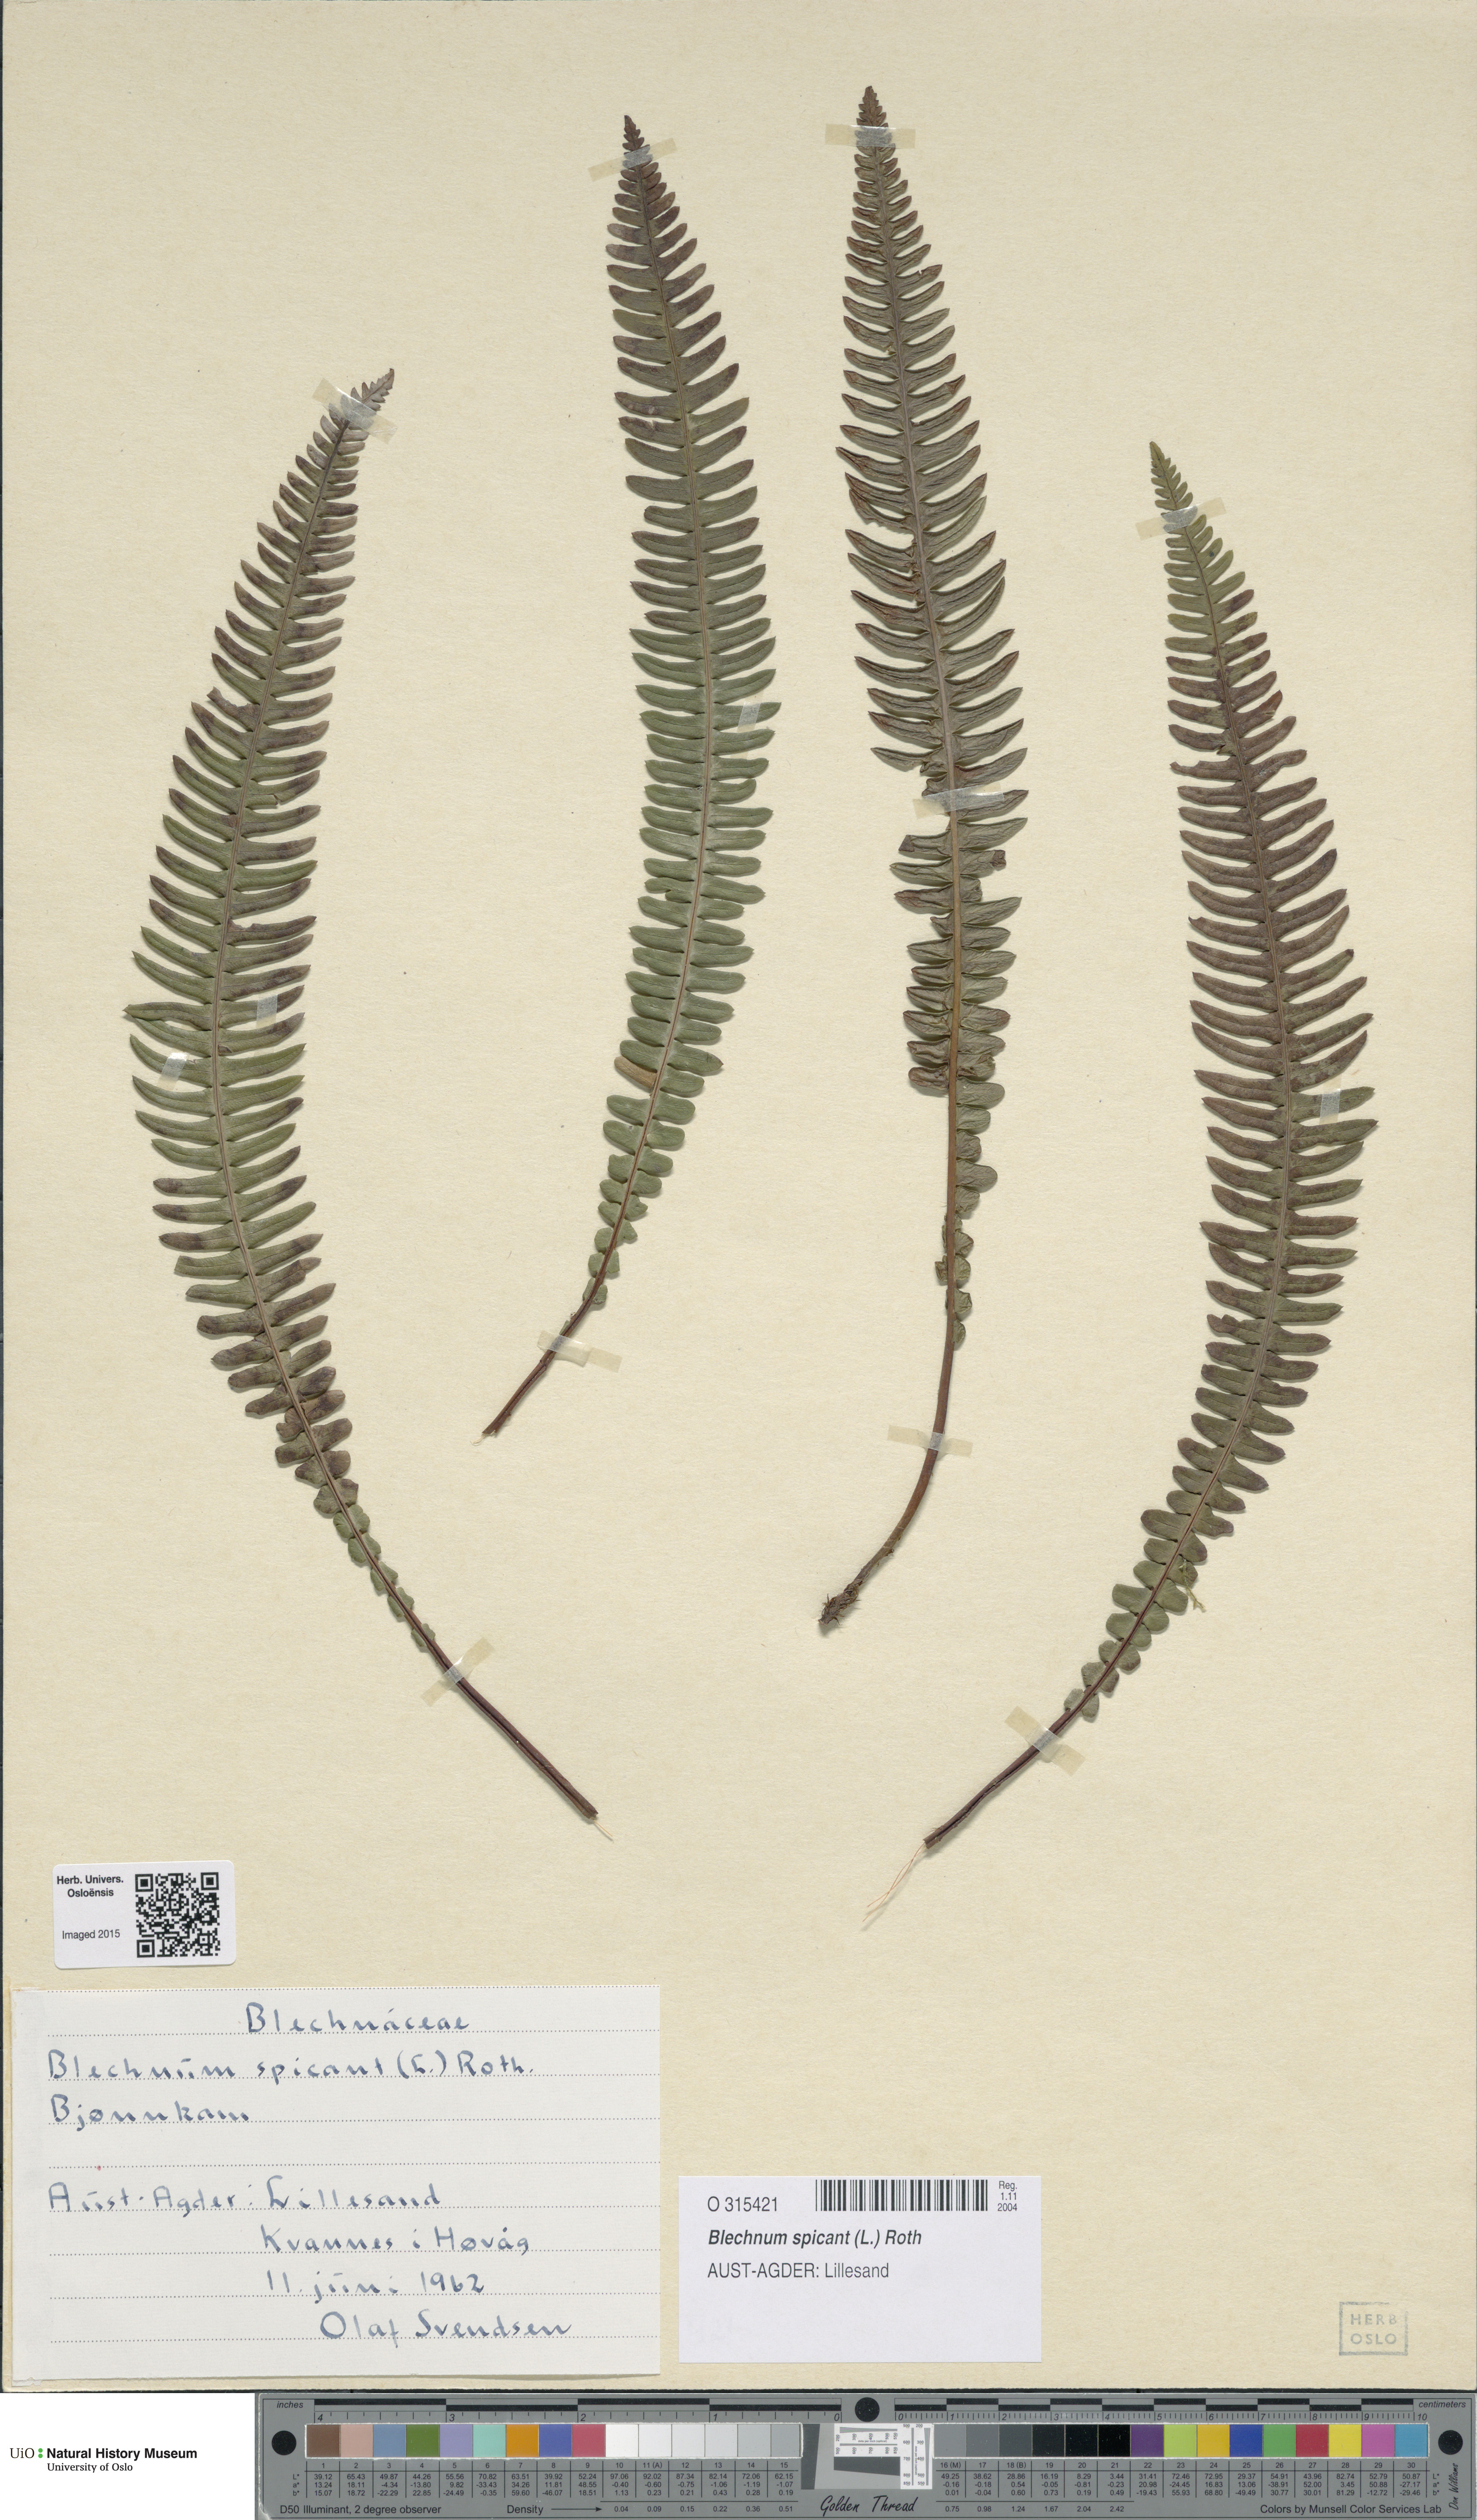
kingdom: Plantae
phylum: Tracheophyta
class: Polypodiopsida
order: Polypodiales
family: Blechnaceae
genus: Struthiopteris
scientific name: Struthiopteris spicant
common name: Deer fern
